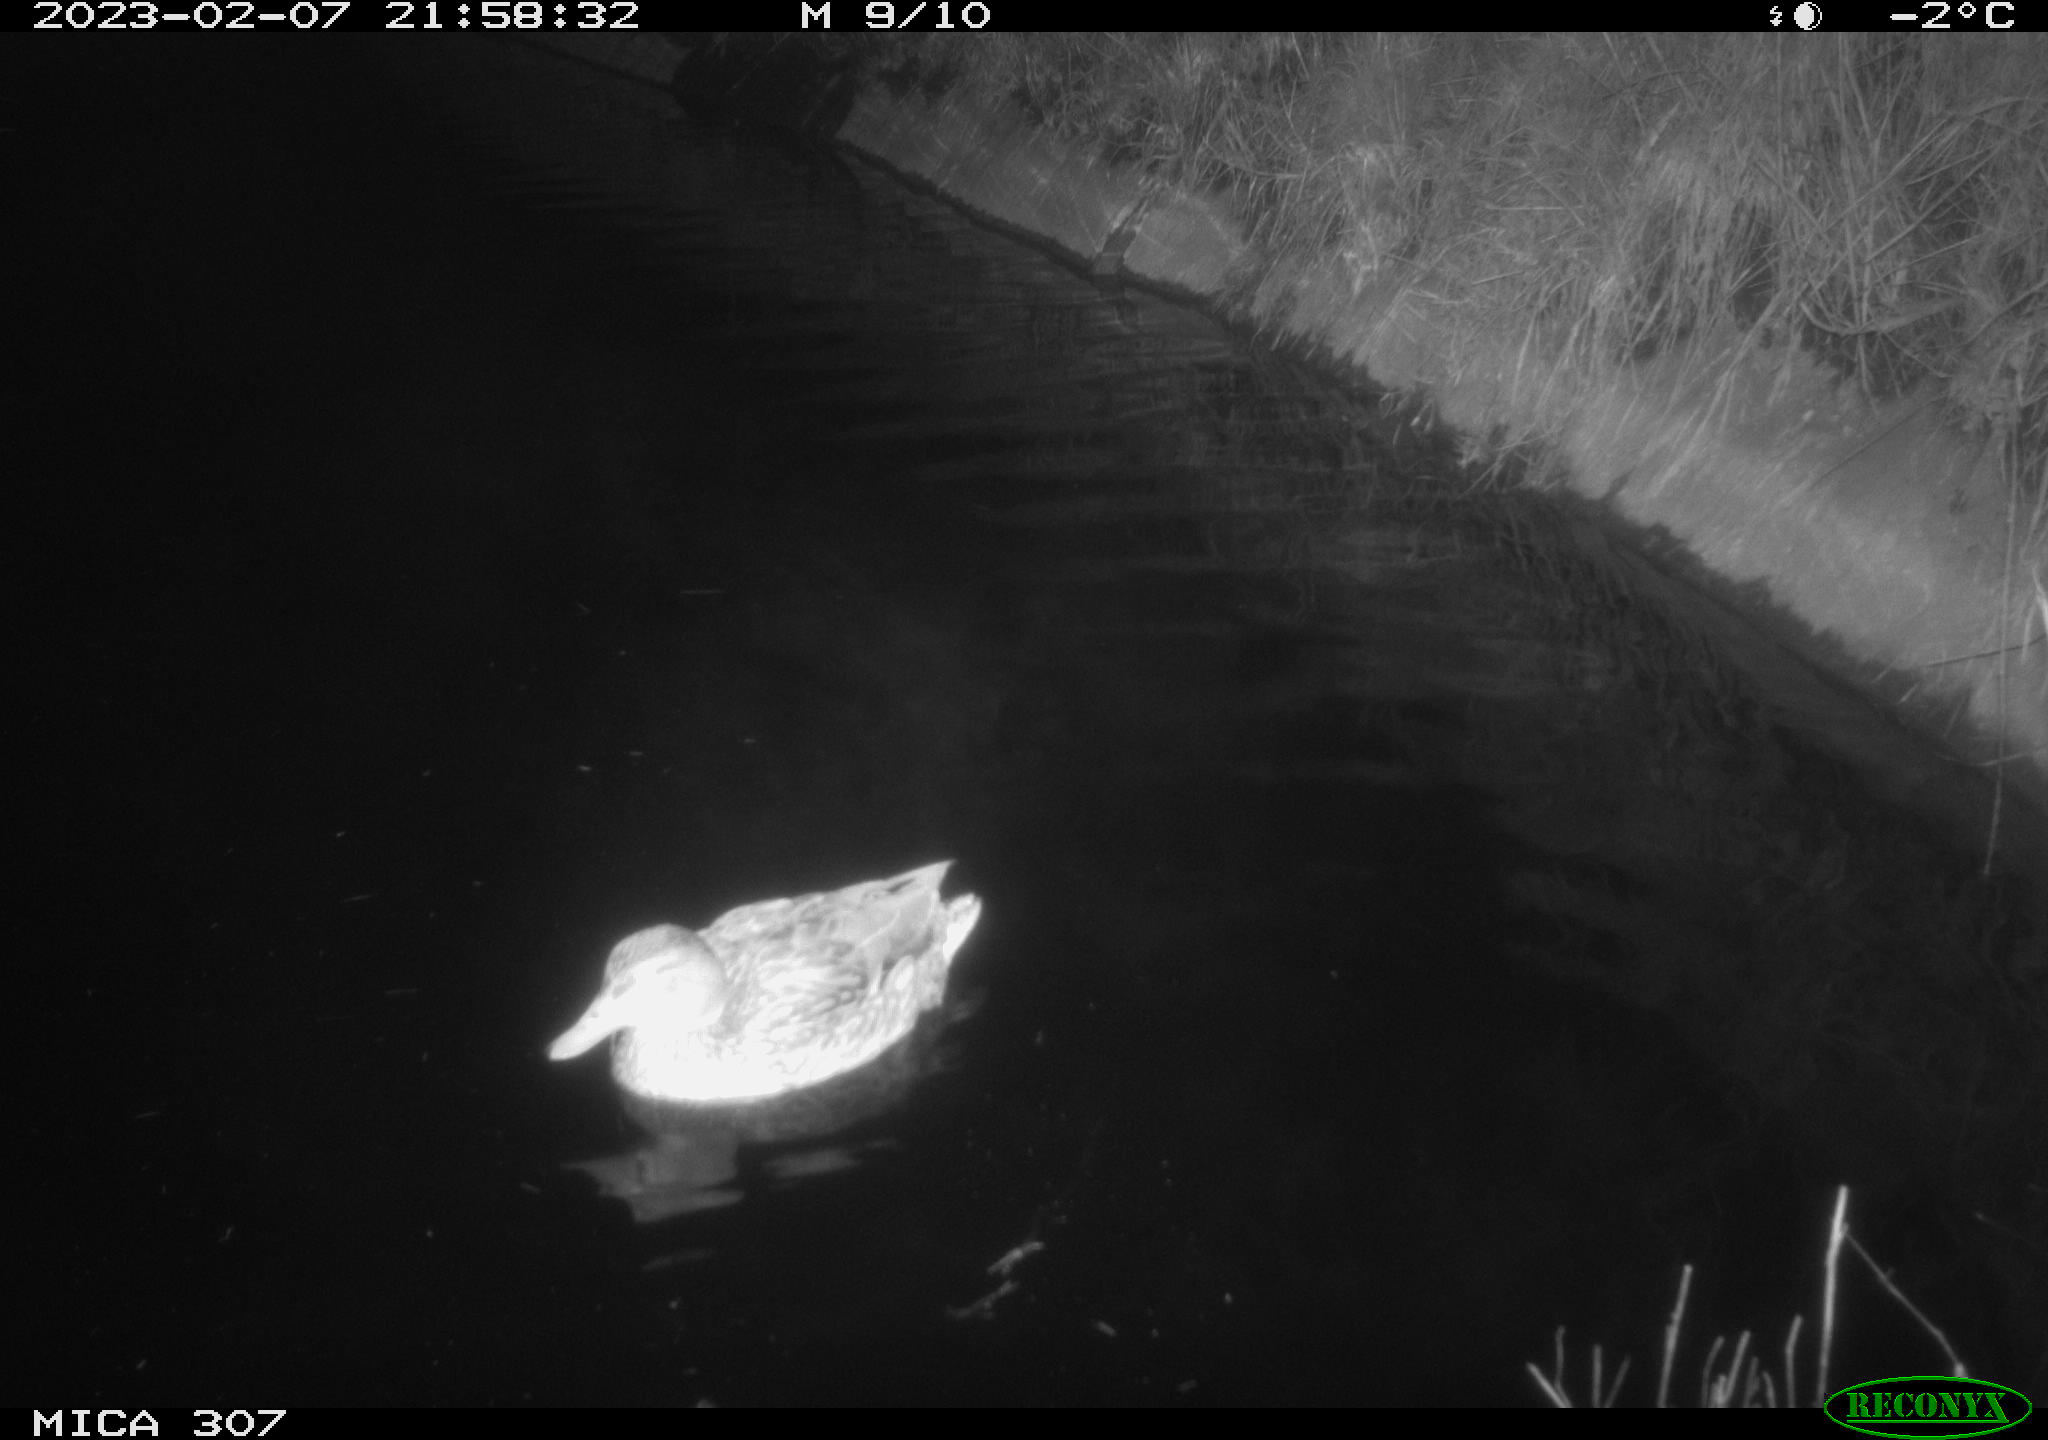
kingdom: Animalia
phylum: Chordata
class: Aves
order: Anseriformes
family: Anatidae
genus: Anas
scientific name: Anas
